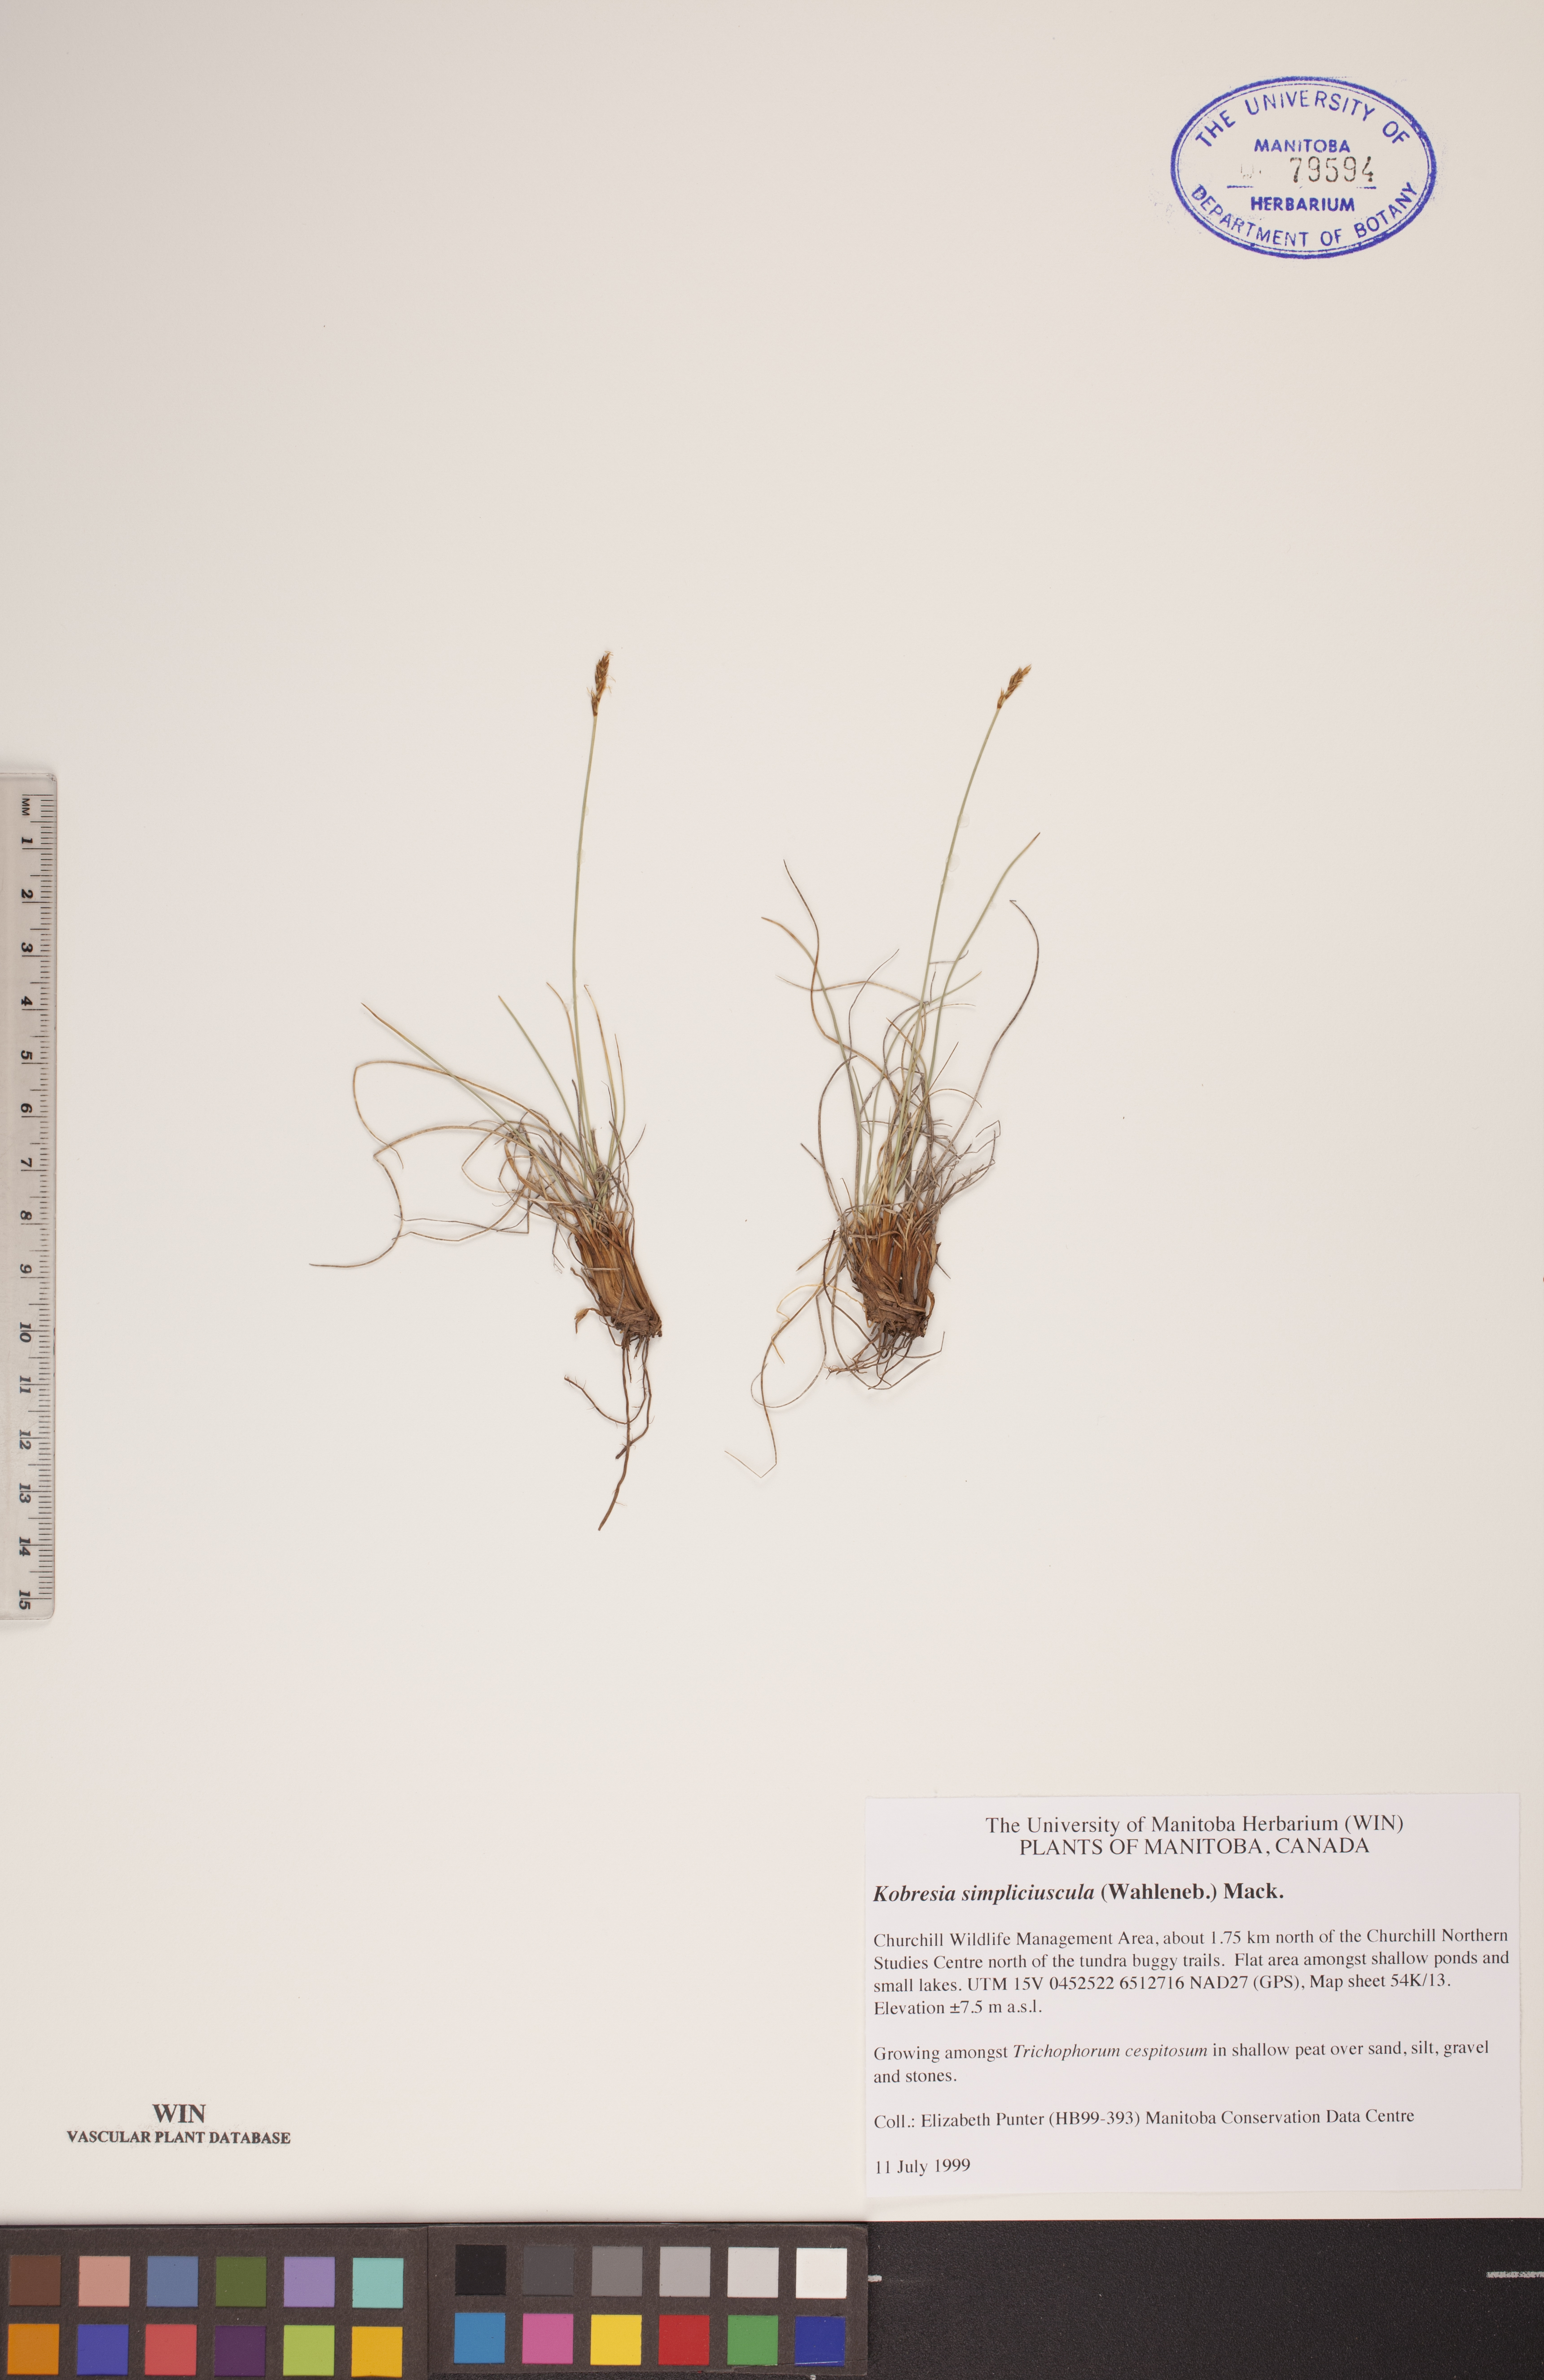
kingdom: Plantae
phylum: Tracheophyta
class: Liliopsida
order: Poales
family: Cyperaceae
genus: Carex
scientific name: Carex simpliciuscula
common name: Simple bog sedge
